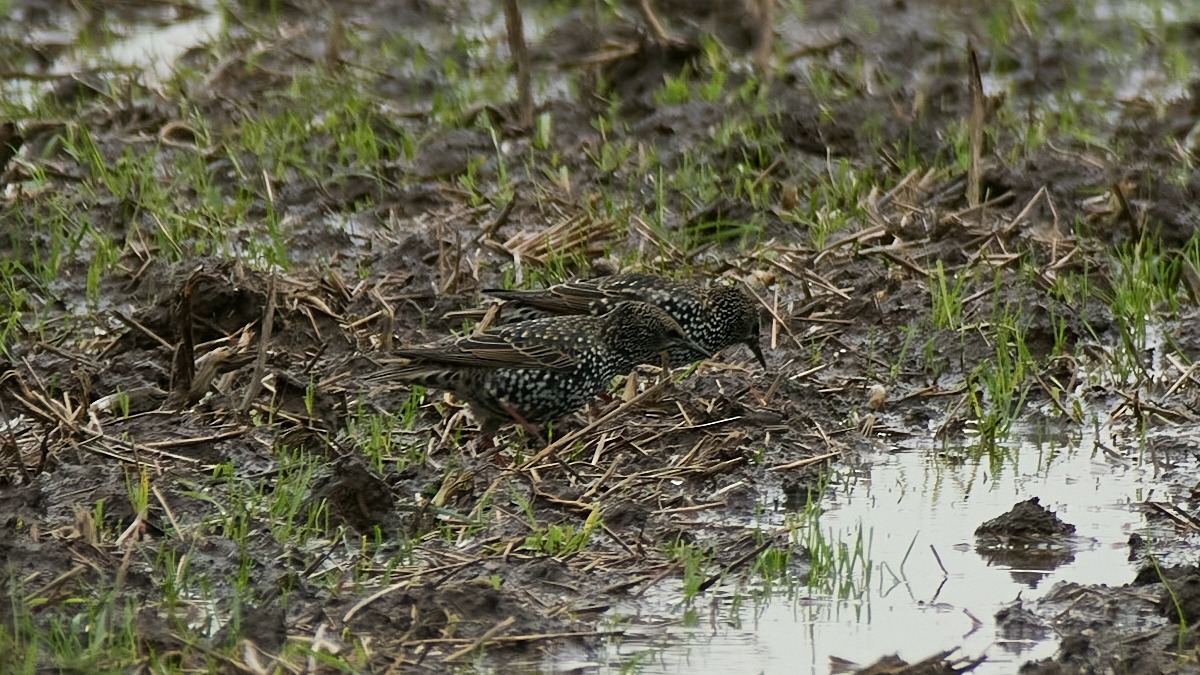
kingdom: Animalia
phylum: Chordata
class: Aves
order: Passeriformes
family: Sturnidae
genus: Sturnus
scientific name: Sturnus vulgaris
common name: Stær
